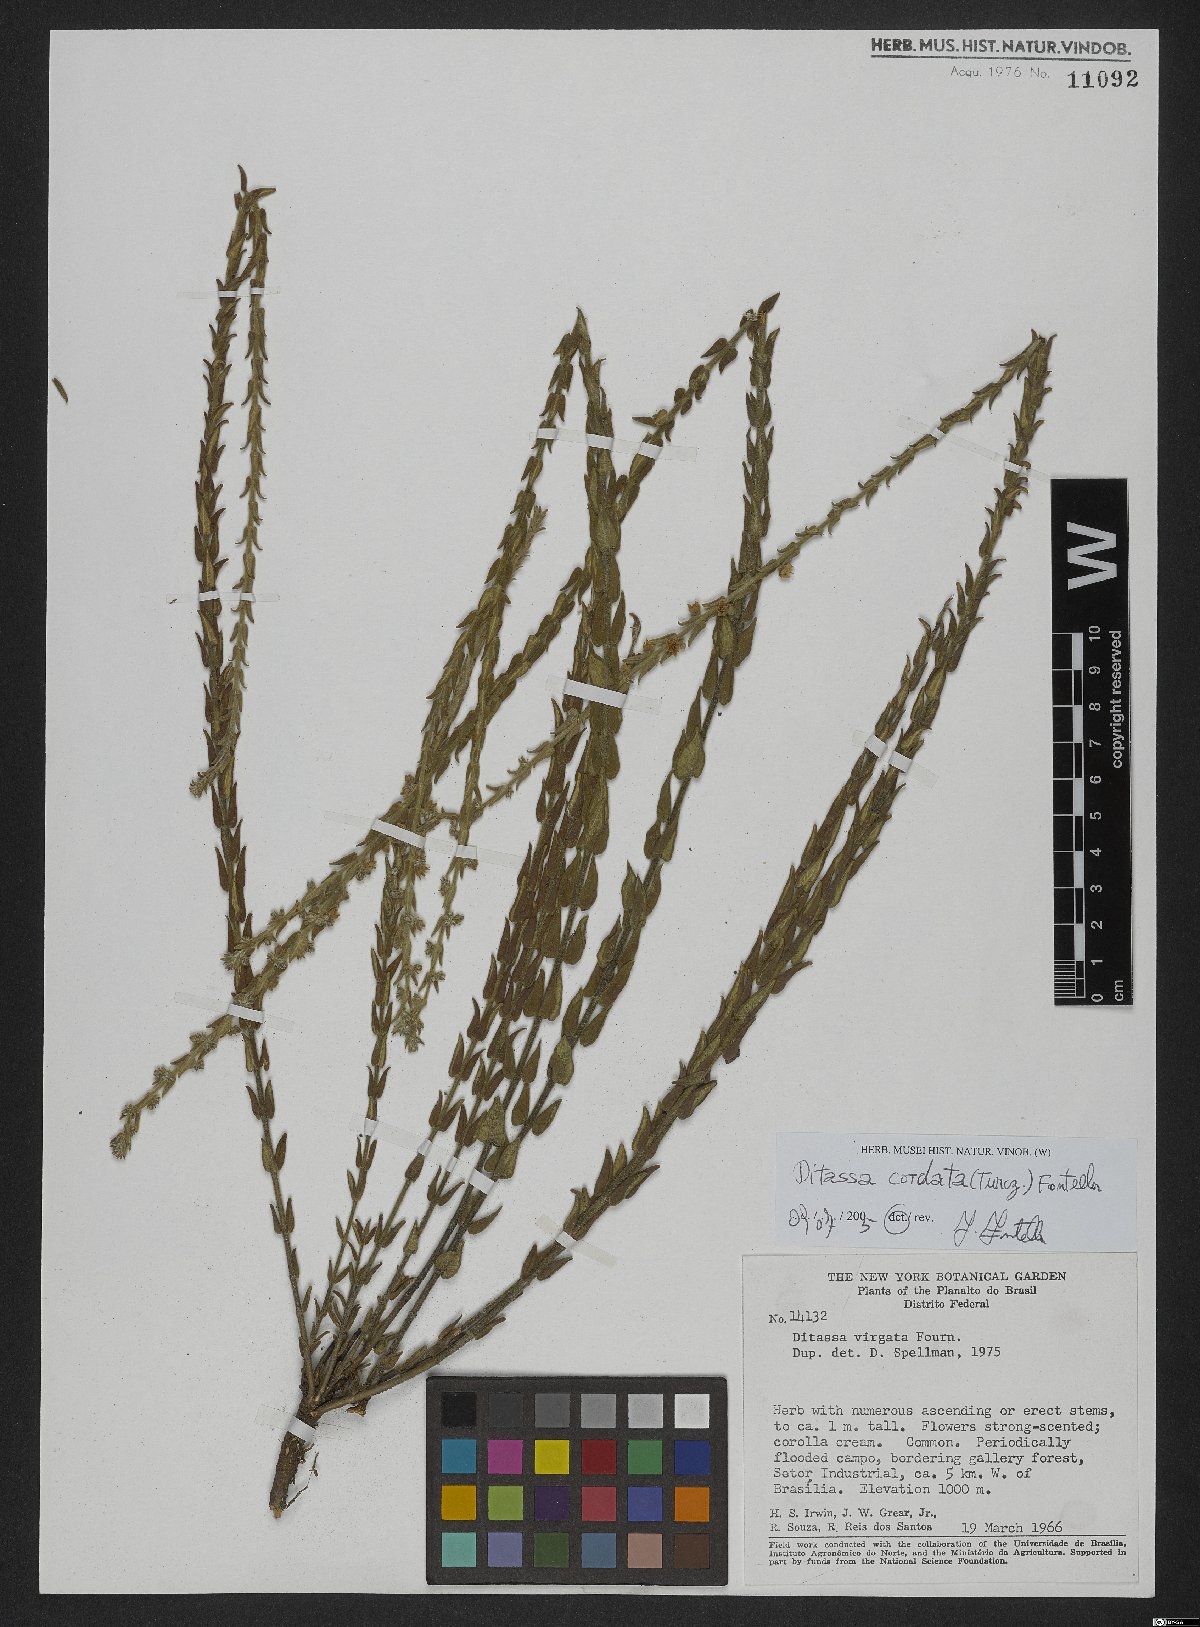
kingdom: Plantae
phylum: Tracheophyta
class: Magnoliopsida
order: Gentianales
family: Apocynaceae
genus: Minaria
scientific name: Minaria cordata
